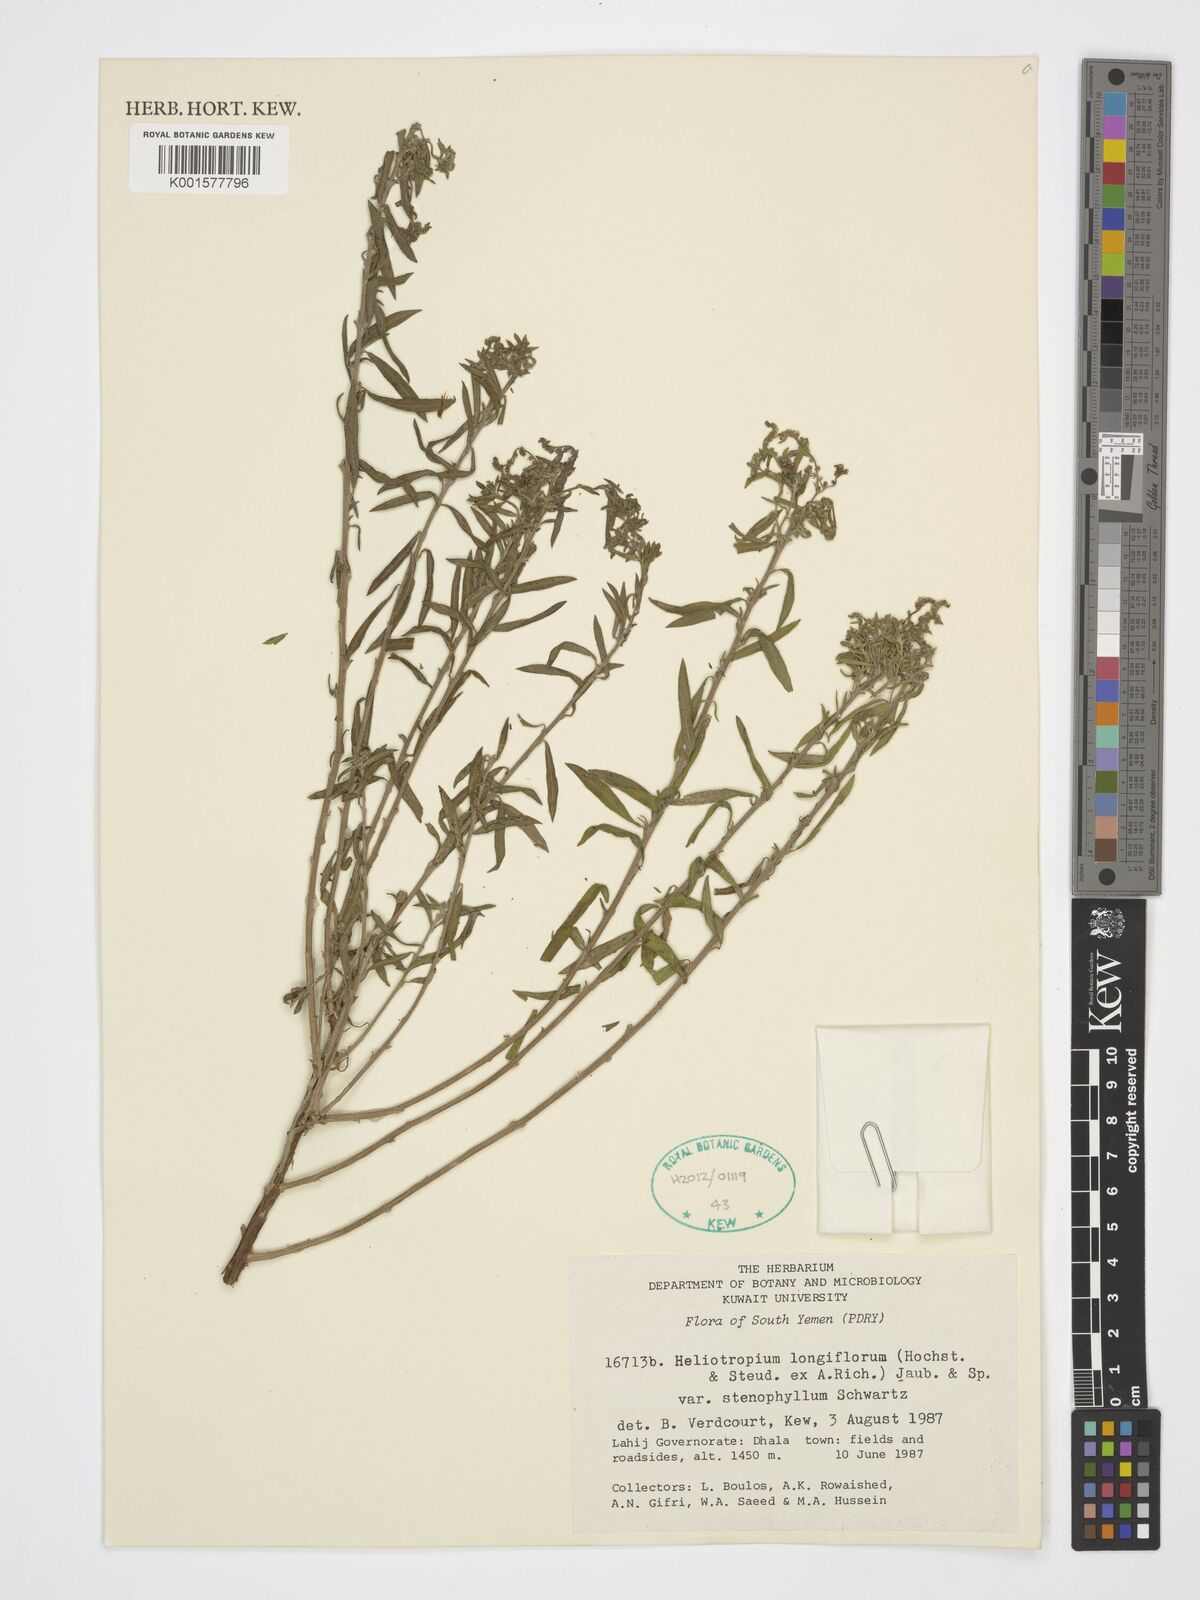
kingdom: Plantae
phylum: Tracheophyta
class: Magnoliopsida
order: Boraginales
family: Heliotropiaceae
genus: Heliotropium
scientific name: Heliotropium longiflorum
